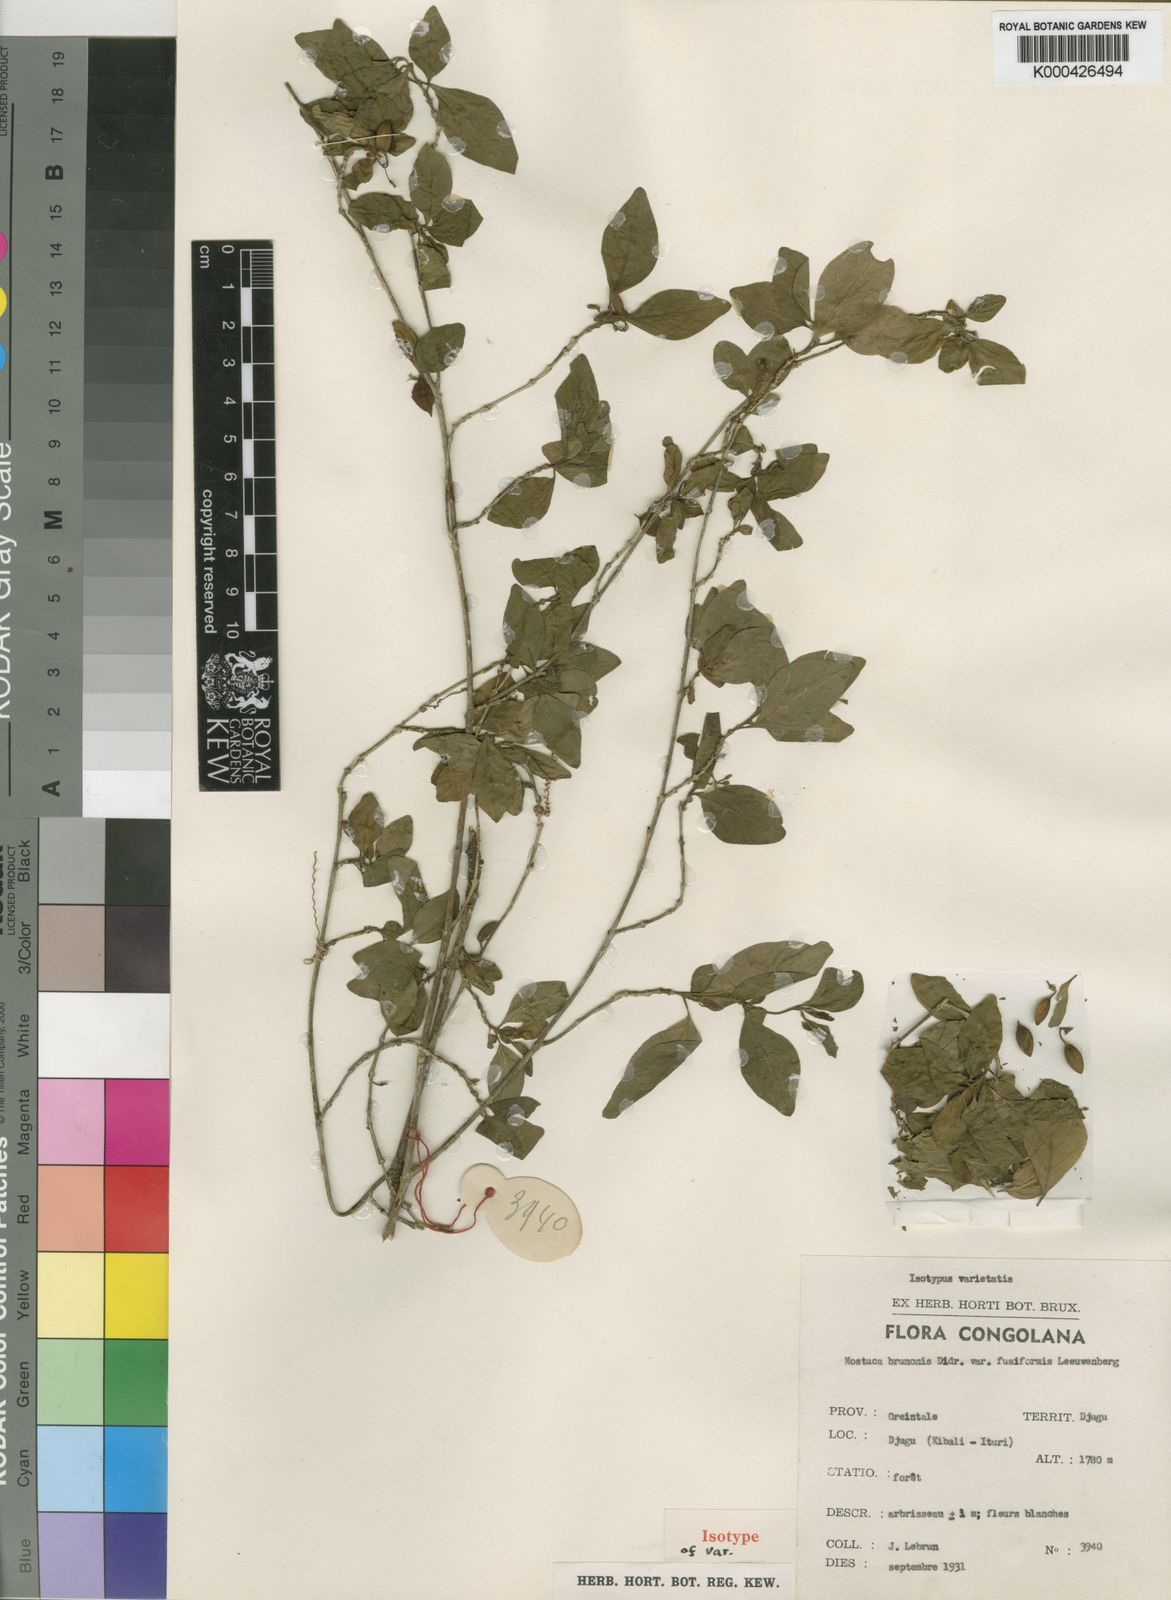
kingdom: Plantae
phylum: Tracheophyta
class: Magnoliopsida
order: Gentianales
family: Gelsemiaceae
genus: Mostuea
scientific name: Mostuea brunonis
